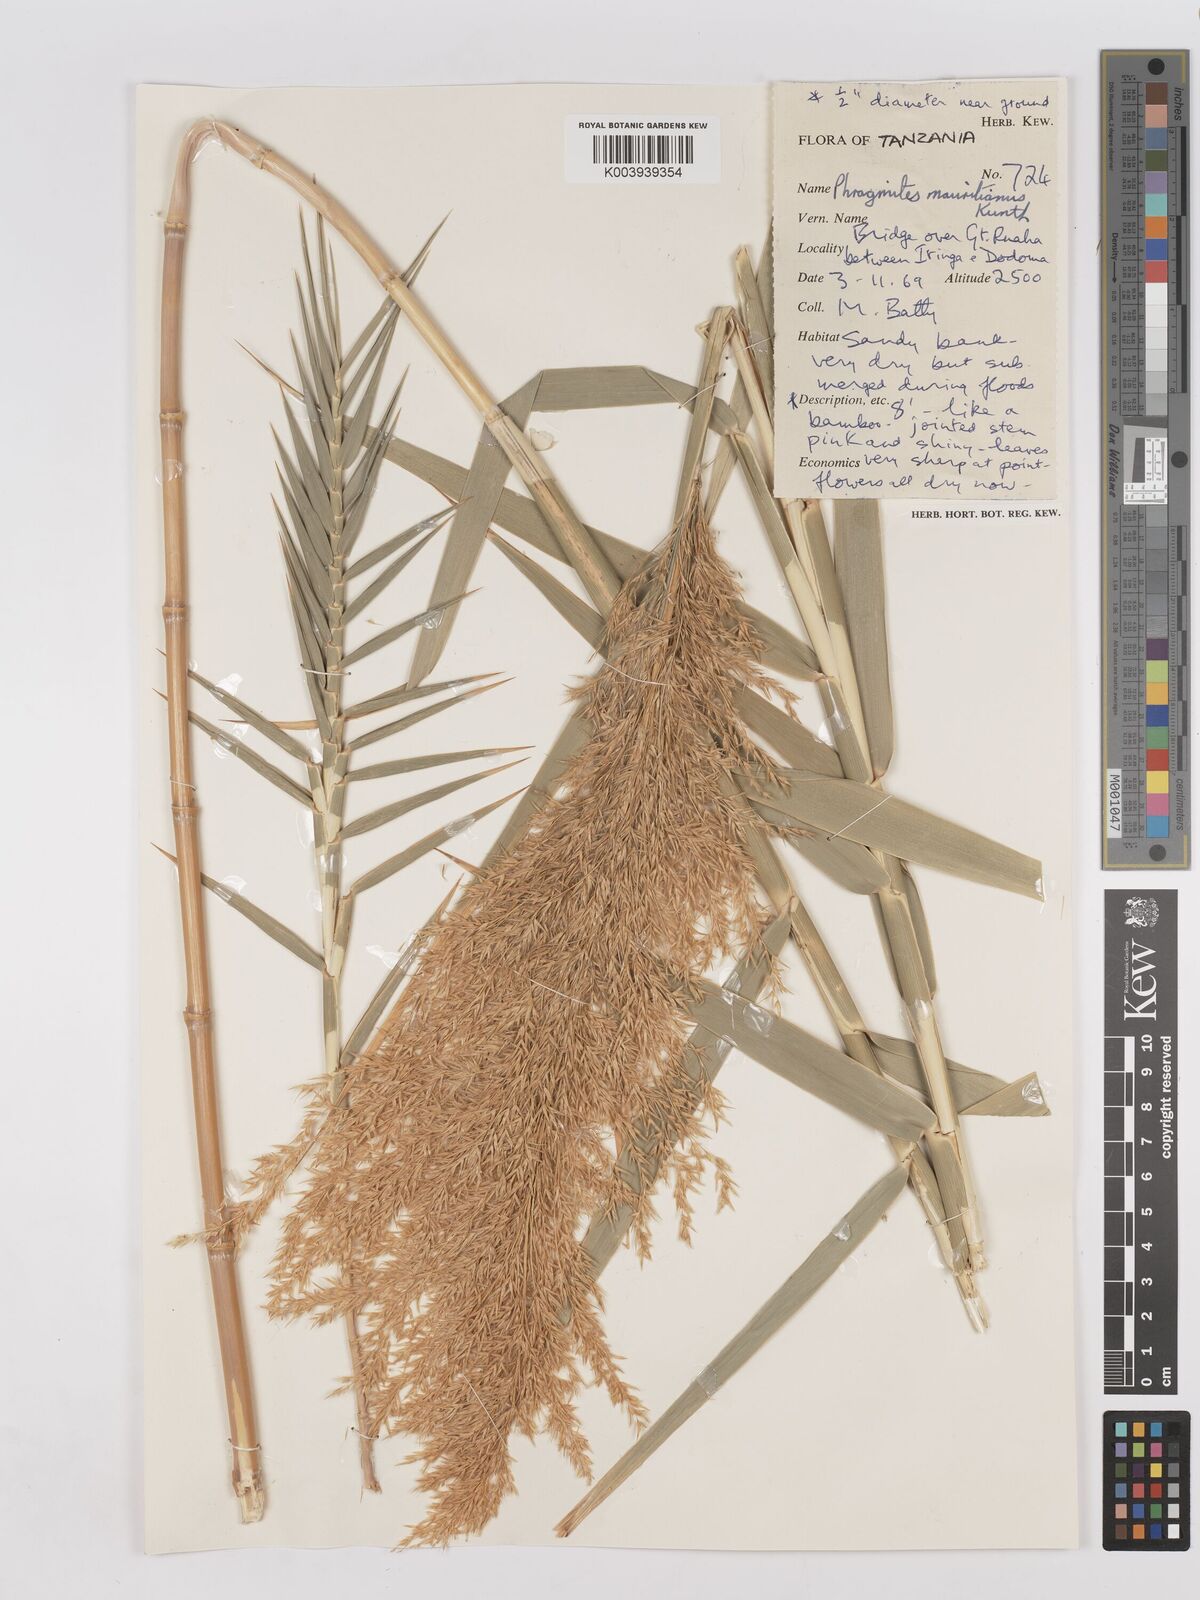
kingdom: Plantae
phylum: Tracheophyta
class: Liliopsida
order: Poales
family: Poaceae
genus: Phragmites
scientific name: Phragmites mauritianus
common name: Reed grass
